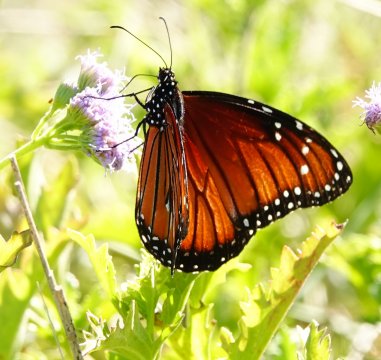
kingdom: Animalia
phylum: Arthropoda
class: Insecta
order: Lepidoptera
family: Nymphalidae
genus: Danaus
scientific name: Danaus eresimus
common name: Soldier
